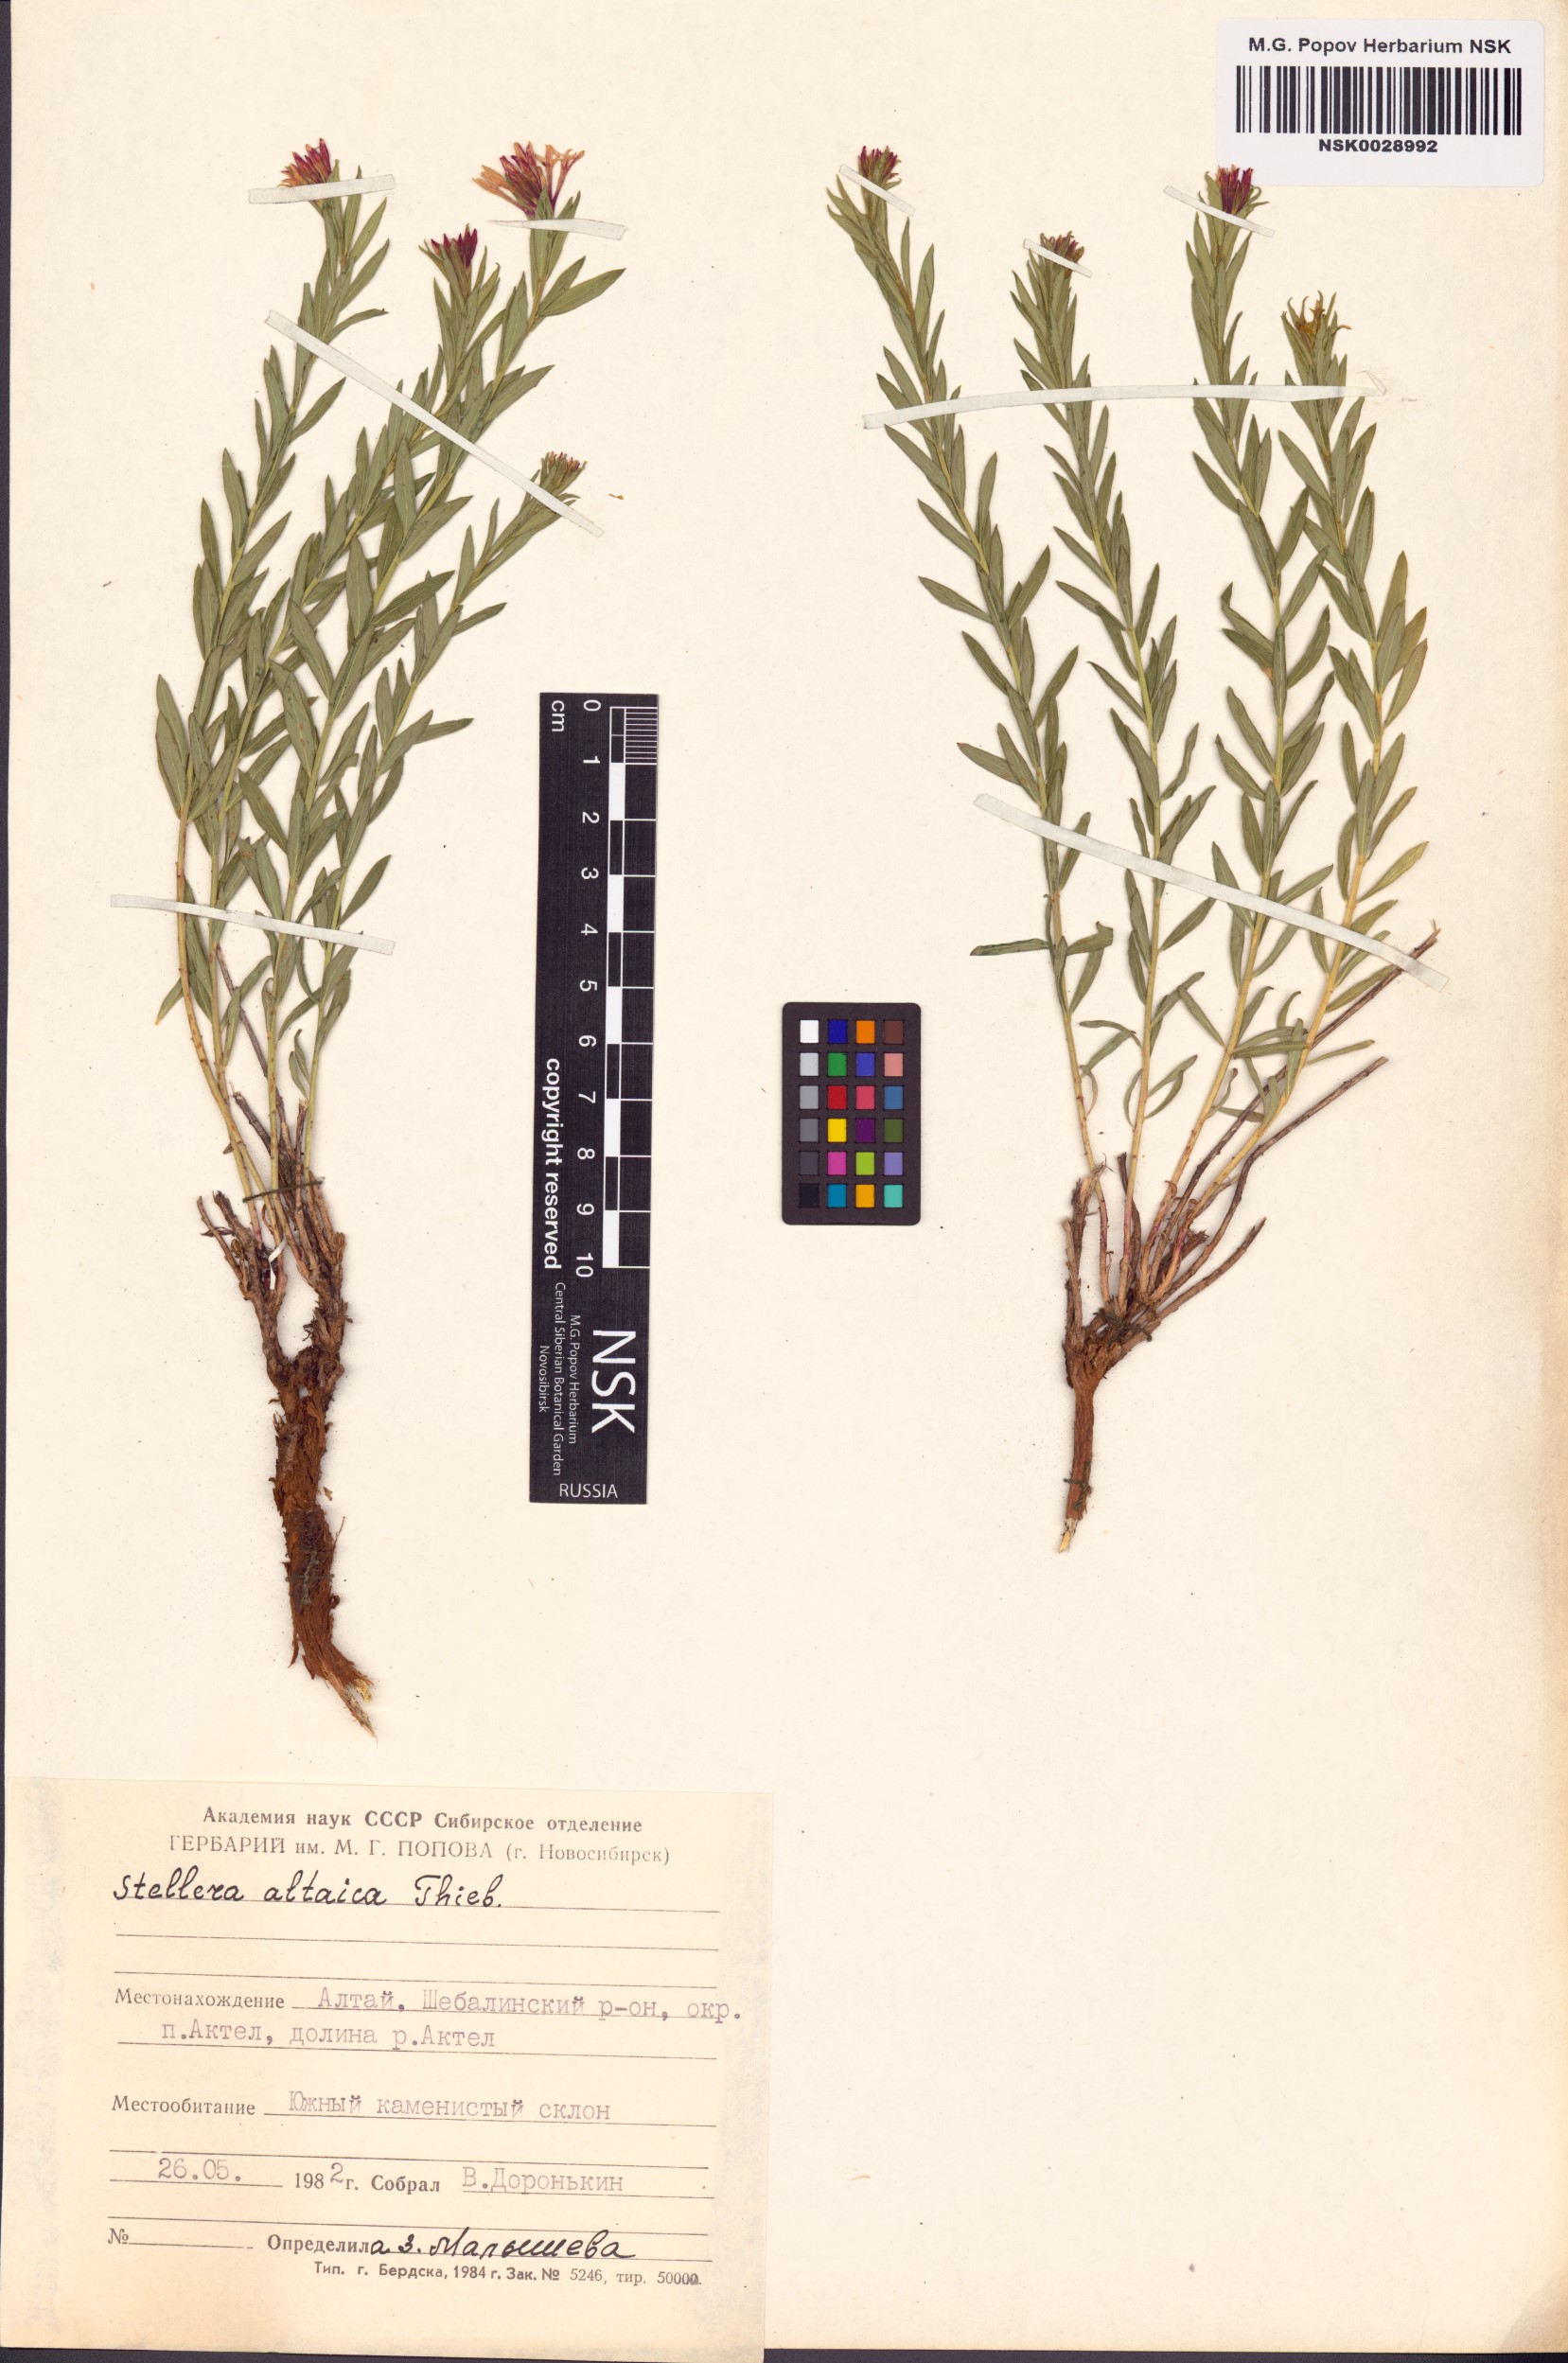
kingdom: Plantae
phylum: Tracheophyta
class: Magnoliopsida
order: Malvales
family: Thymelaeaceae
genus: Diarthron
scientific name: Diarthron altaicum
